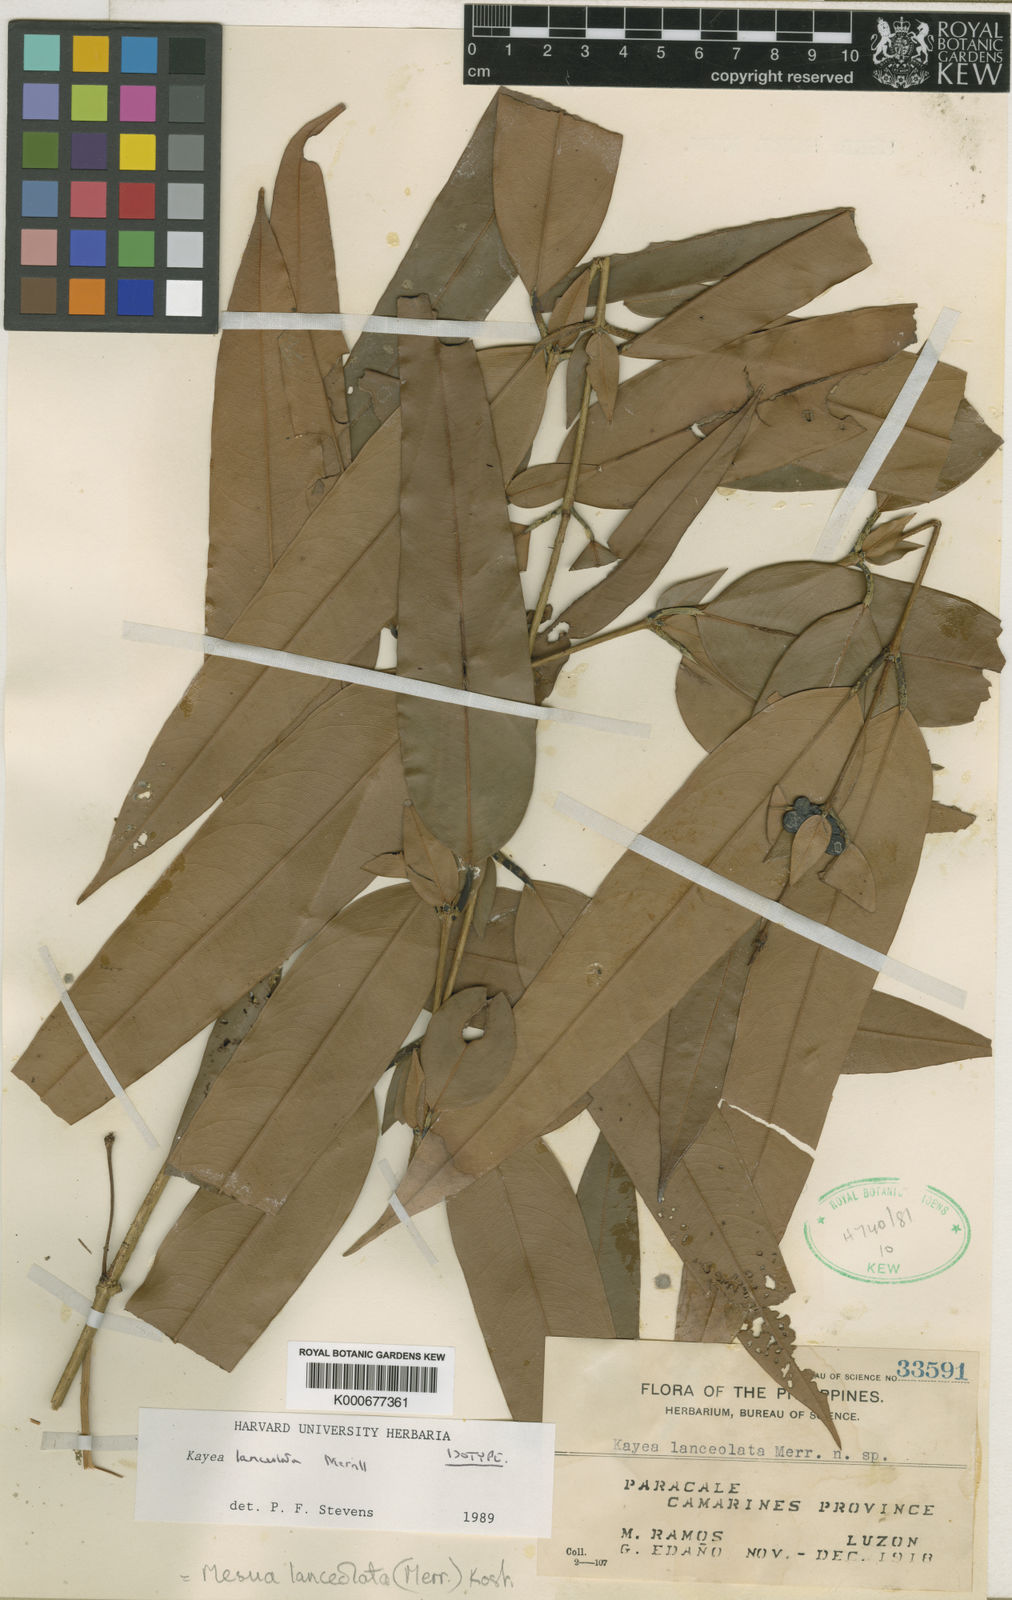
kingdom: Plantae
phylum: Tracheophyta
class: Magnoliopsida
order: Malpighiales
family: Calophyllaceae
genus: Kayea
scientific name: Kayea lanceolata
